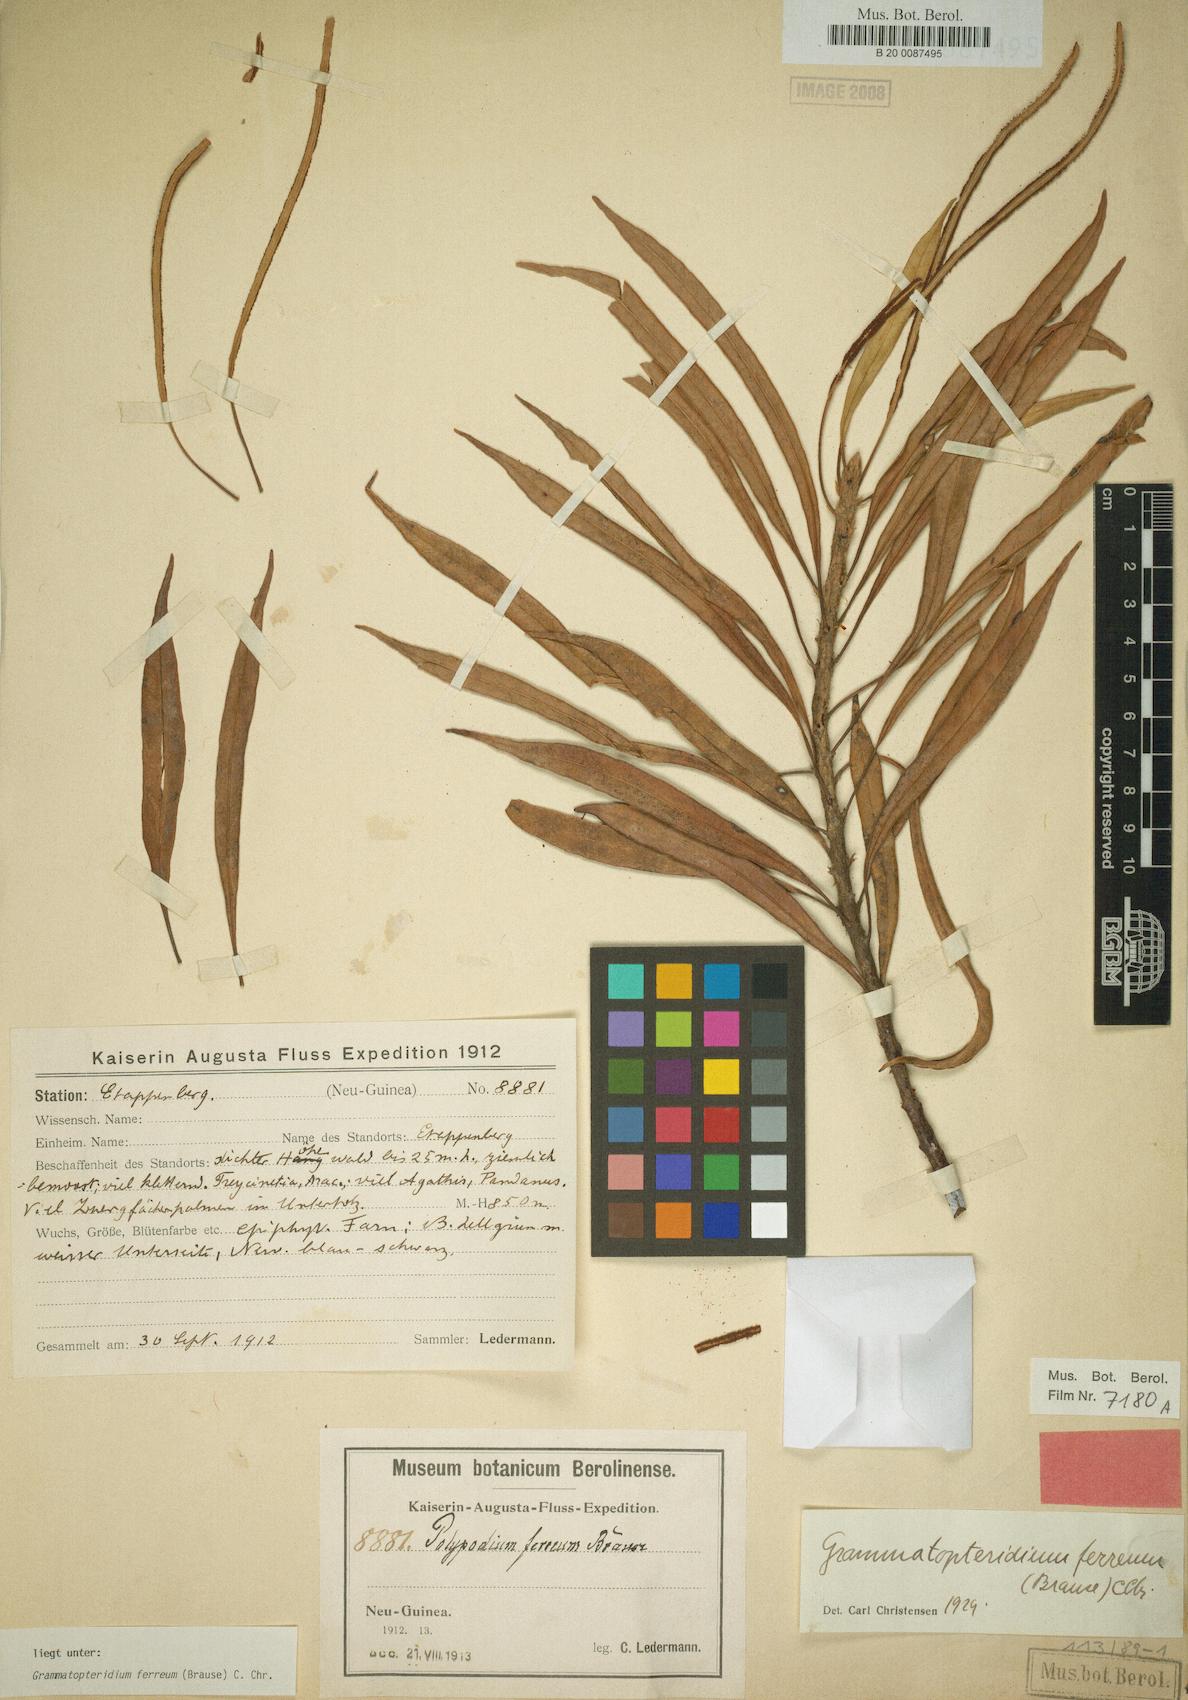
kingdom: Plantae
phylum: Tracheophyta
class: Polypodiopsida
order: Polypodiales
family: Polypodiaceae
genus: Selliguea
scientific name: Selliguea ferrea
